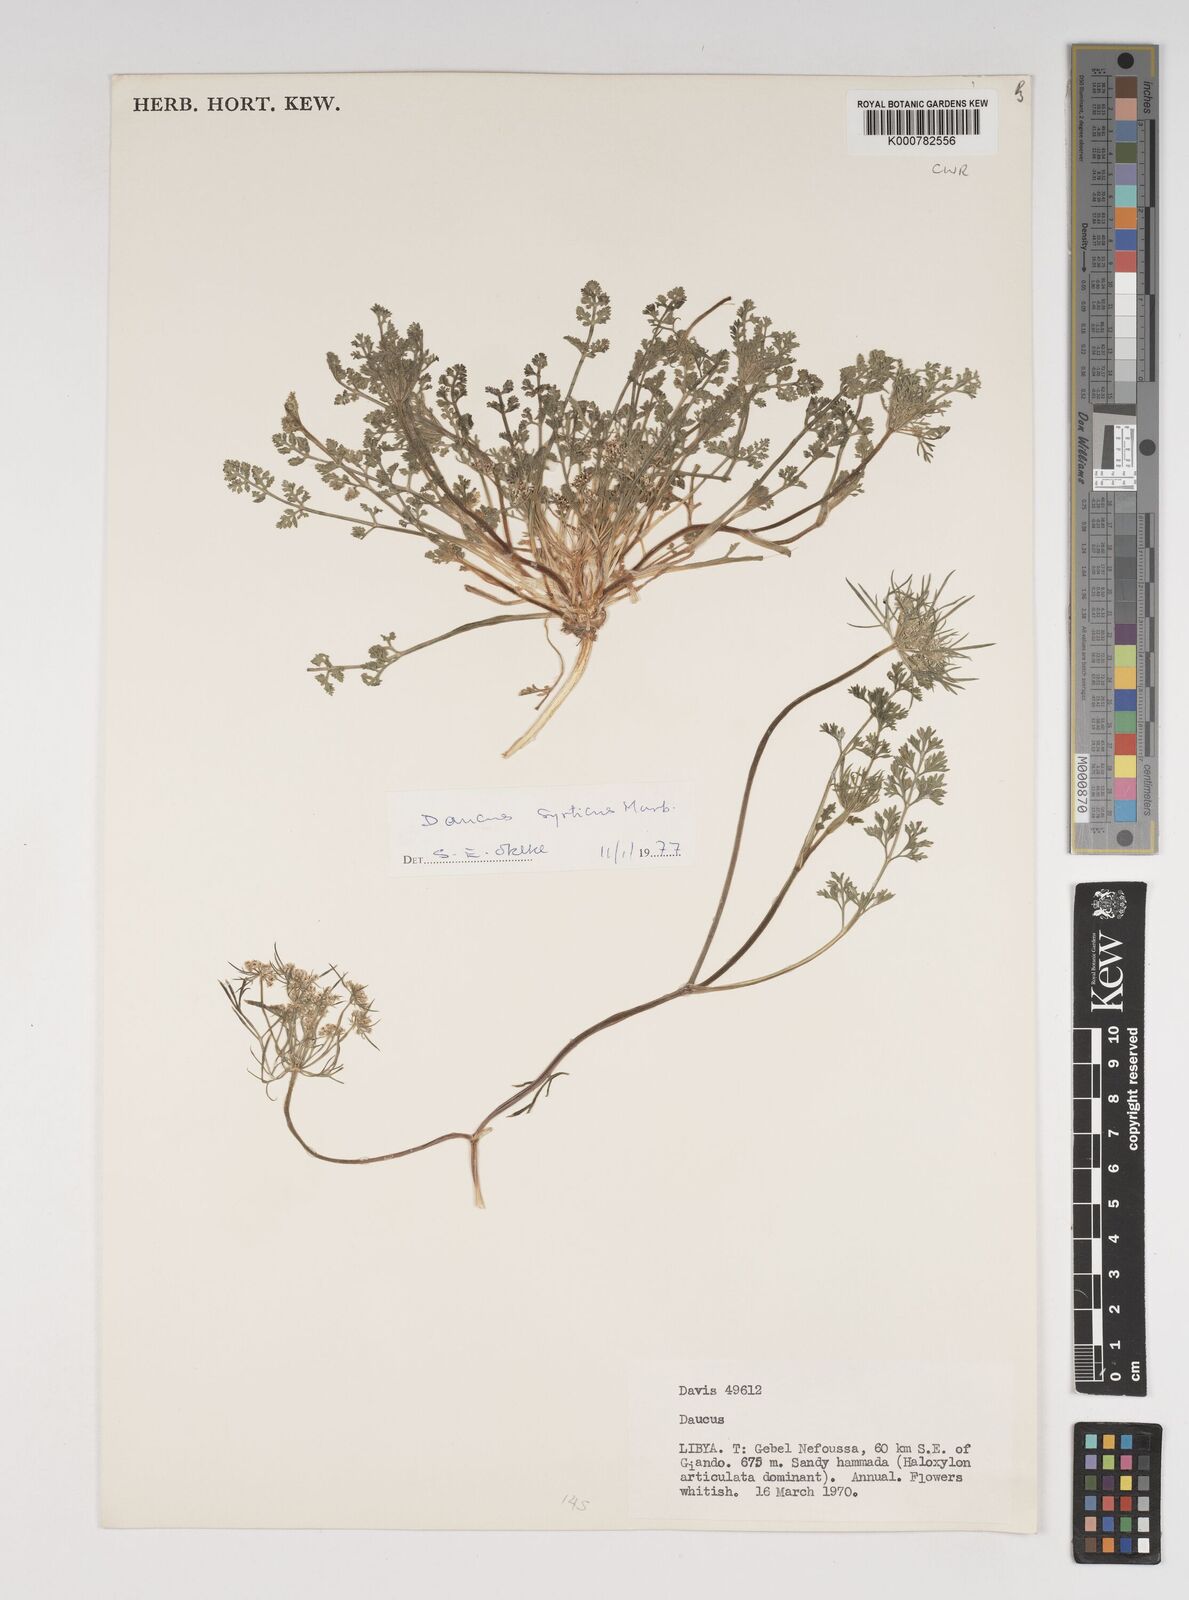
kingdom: Plantae
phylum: Tracheophyta
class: Magnoliopsida
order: Apiales
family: Apiaceae
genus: Daucus
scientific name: Daucus syrticus
